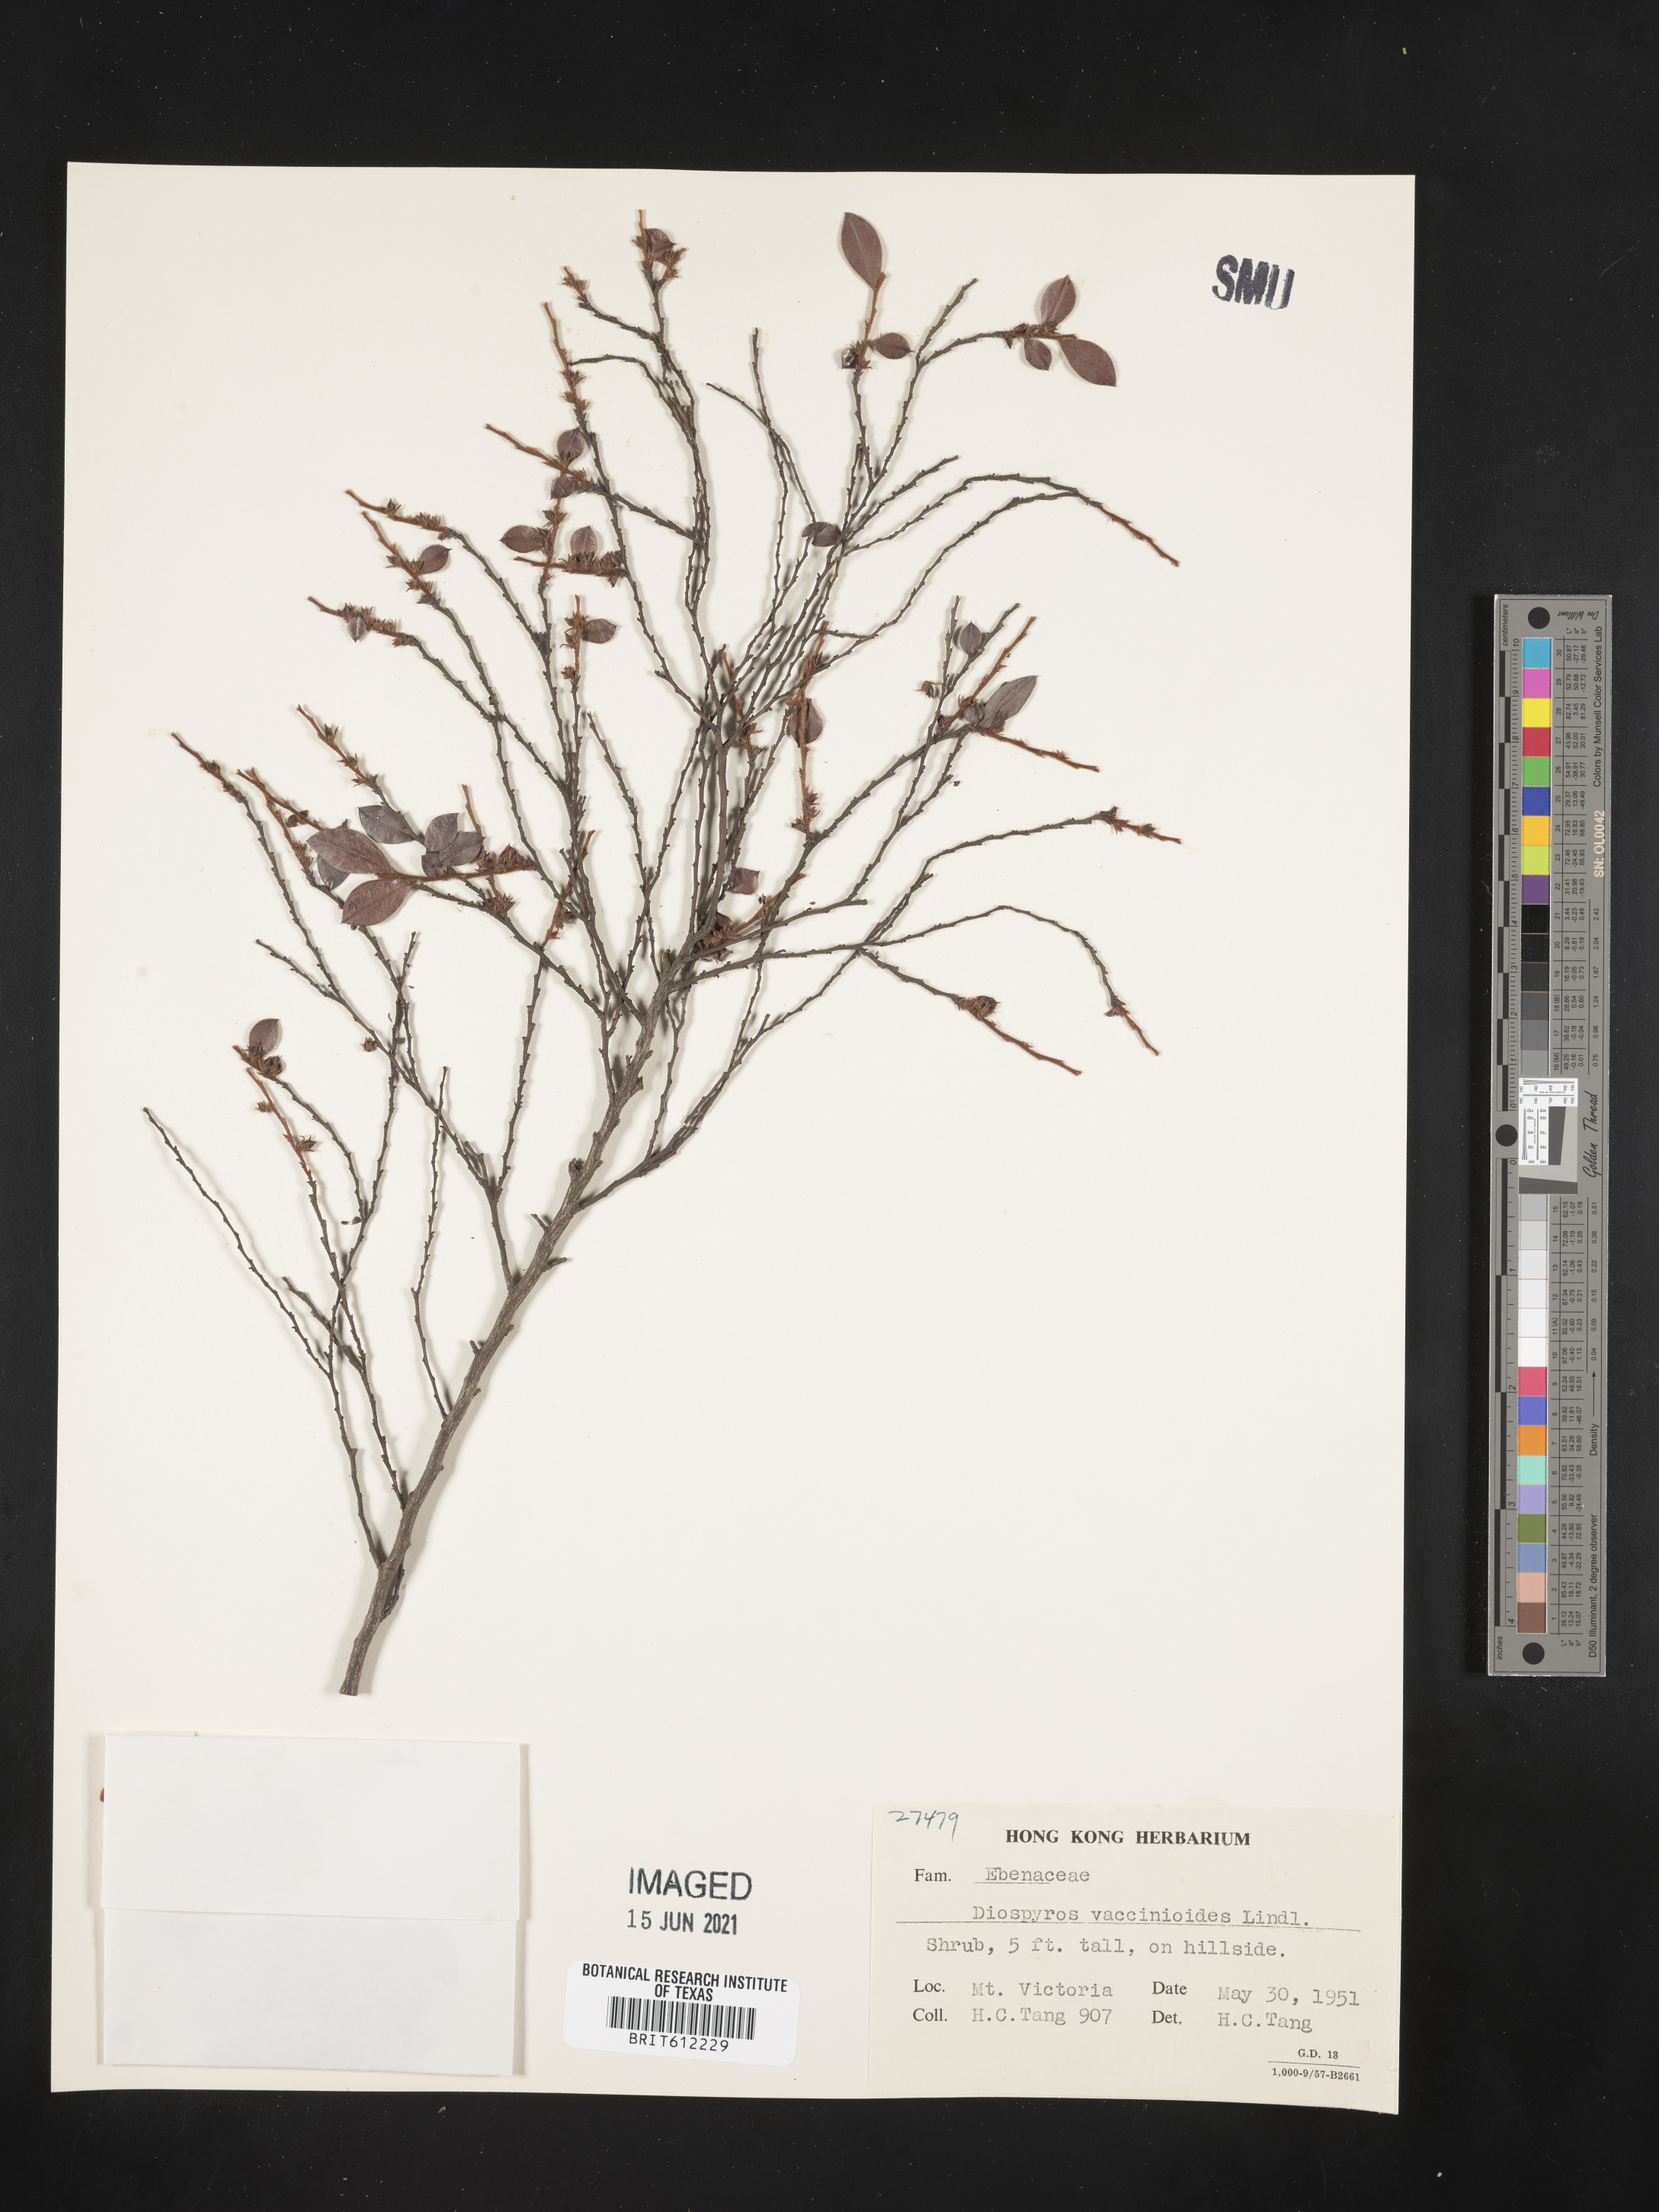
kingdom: Plantae
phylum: Tracheophyta
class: Magnoliopsida
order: Ericales
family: Ebenaceae
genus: Diospyros
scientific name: Diospyros vaccinioides
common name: Small persimmon
